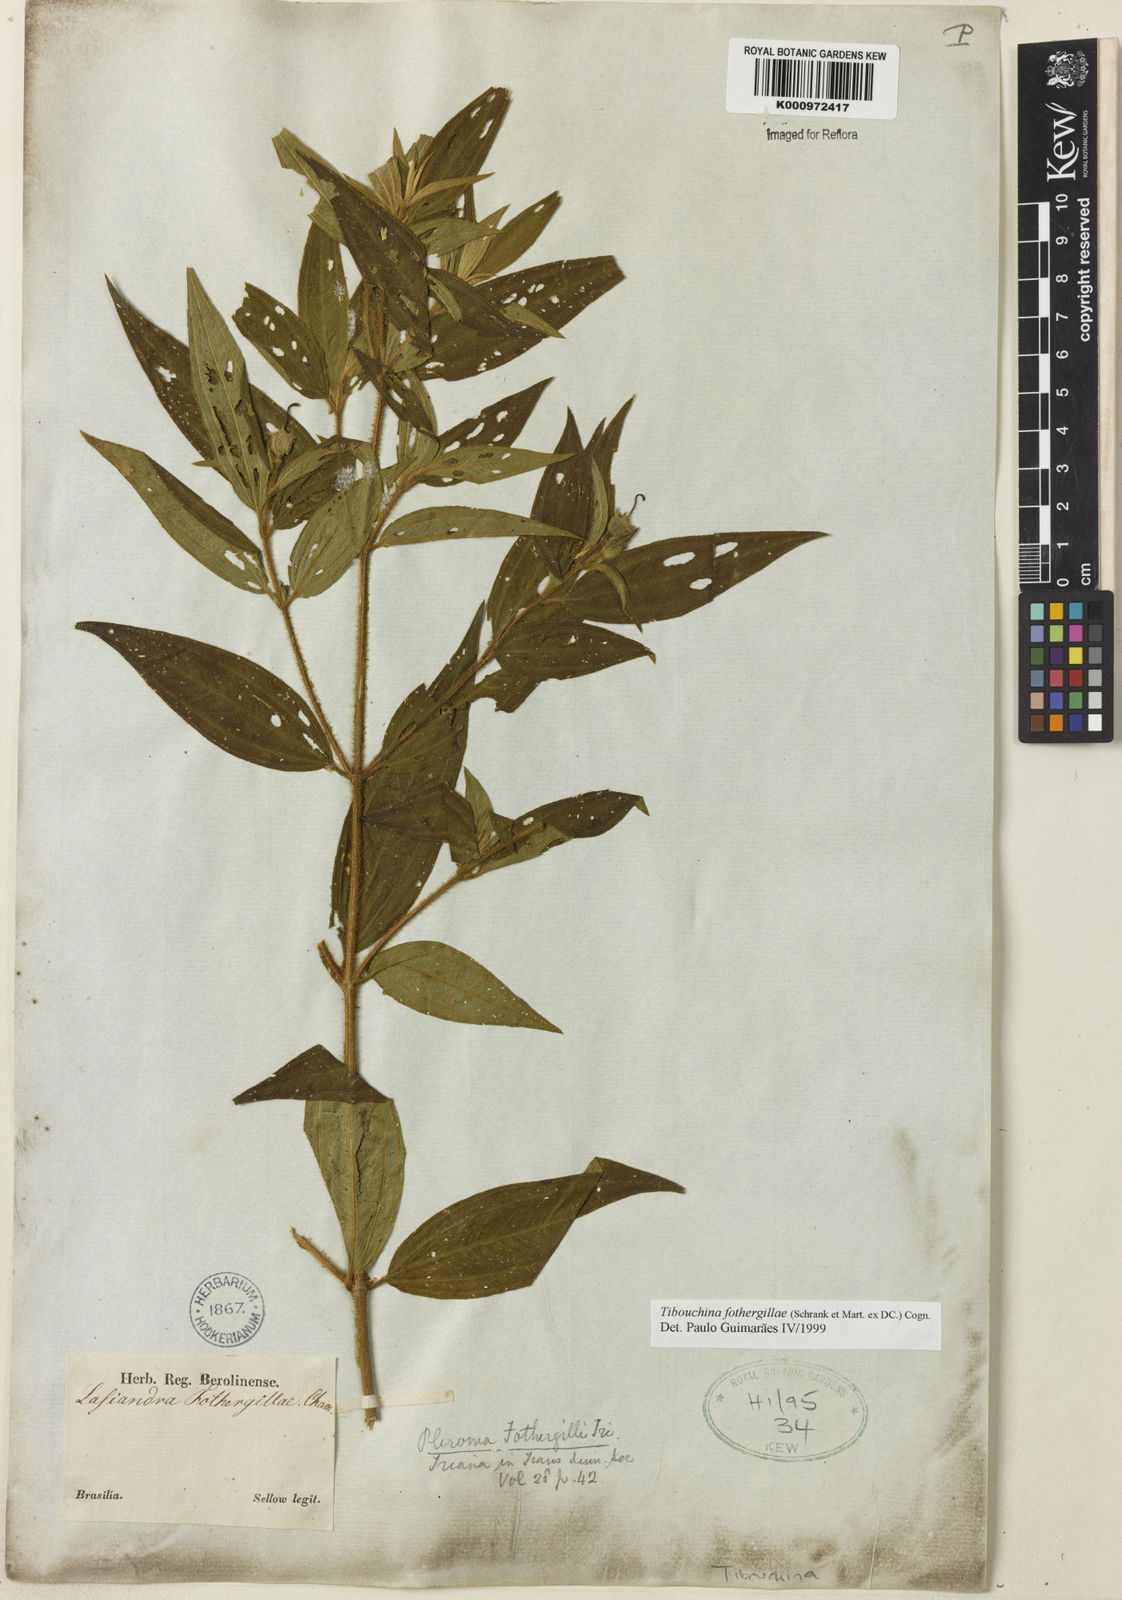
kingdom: Plantae
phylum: Tracheophyta
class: Magnoliopsida
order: Myrtales
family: Melastomataceae
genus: Pleroma
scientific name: Pleroma fothergillae
